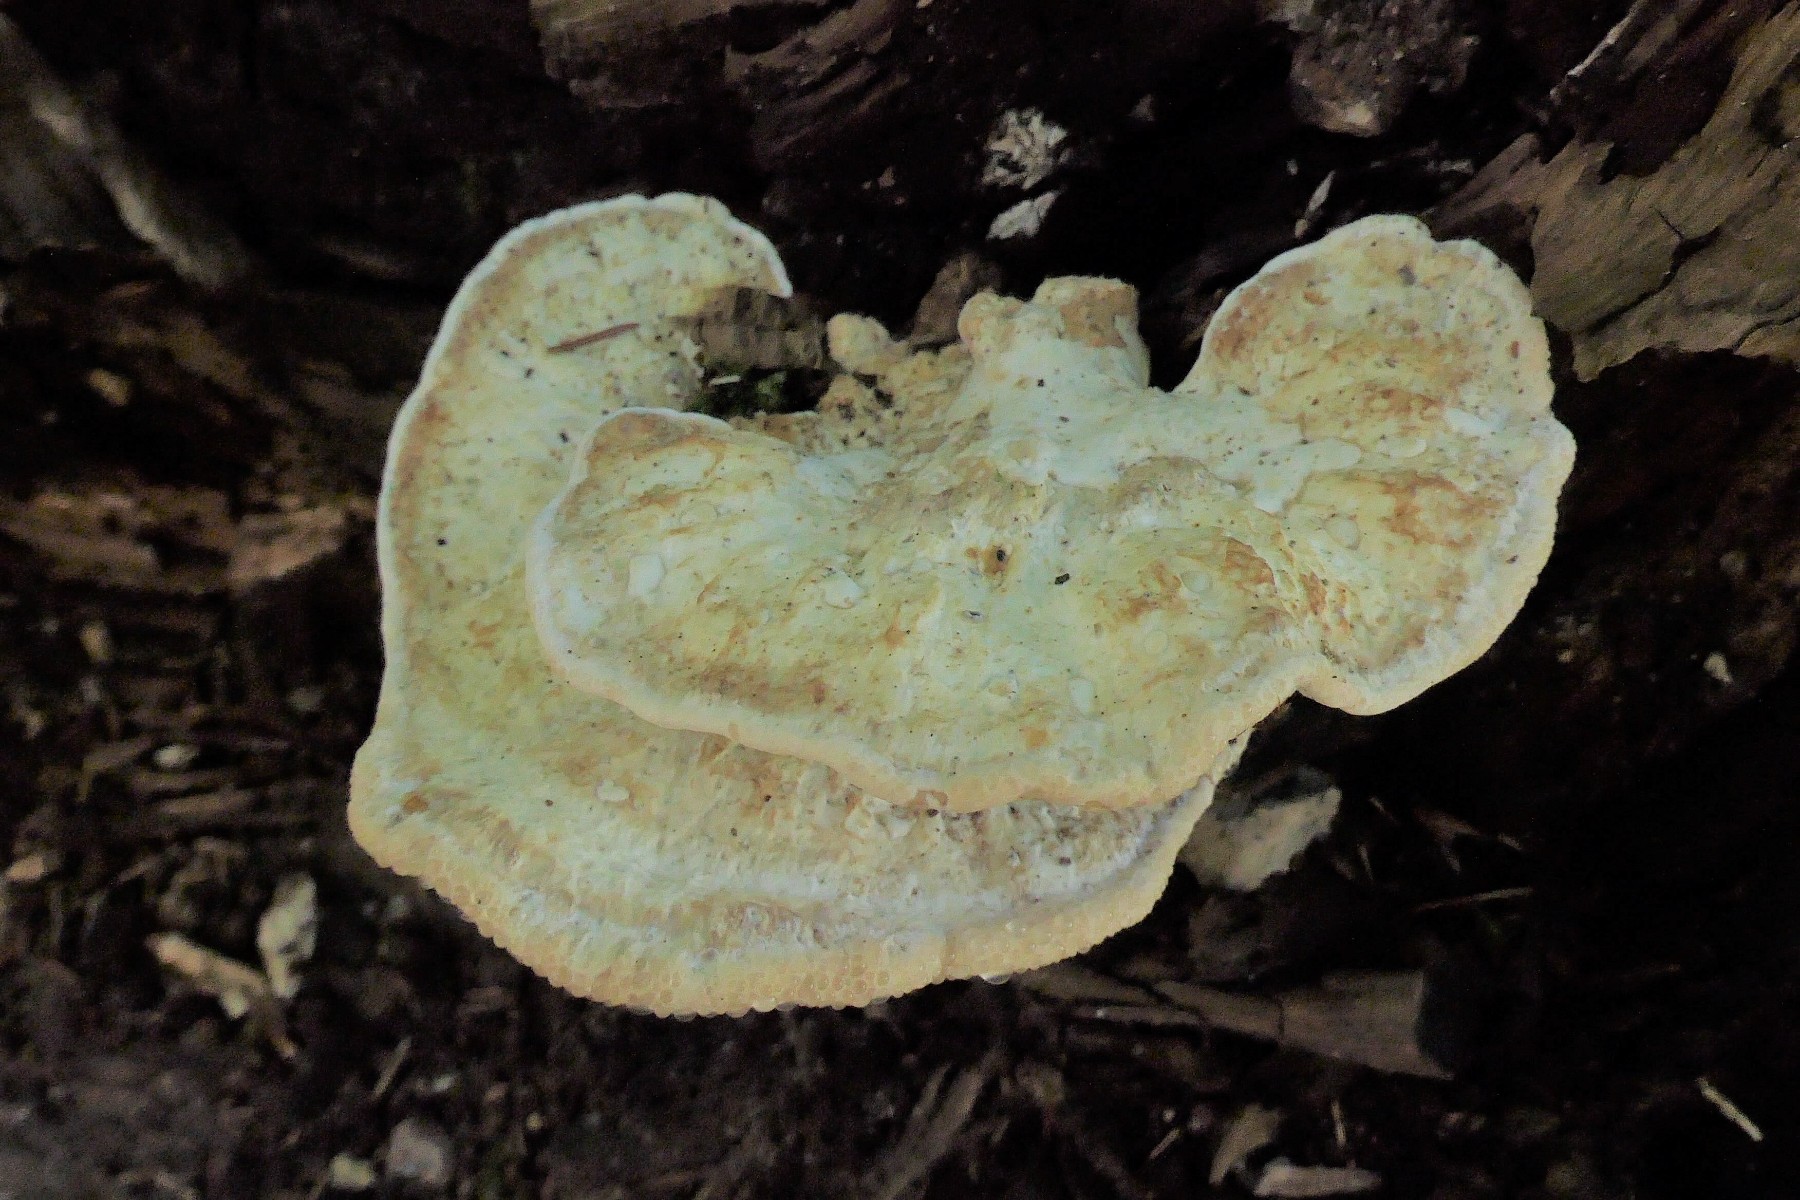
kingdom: Fungi
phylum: Basidiomycota
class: Agaricomycetes
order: Polyporales
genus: Calcipostia
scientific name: Calcipostia guttulata
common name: dråbe-kødporesvamp
